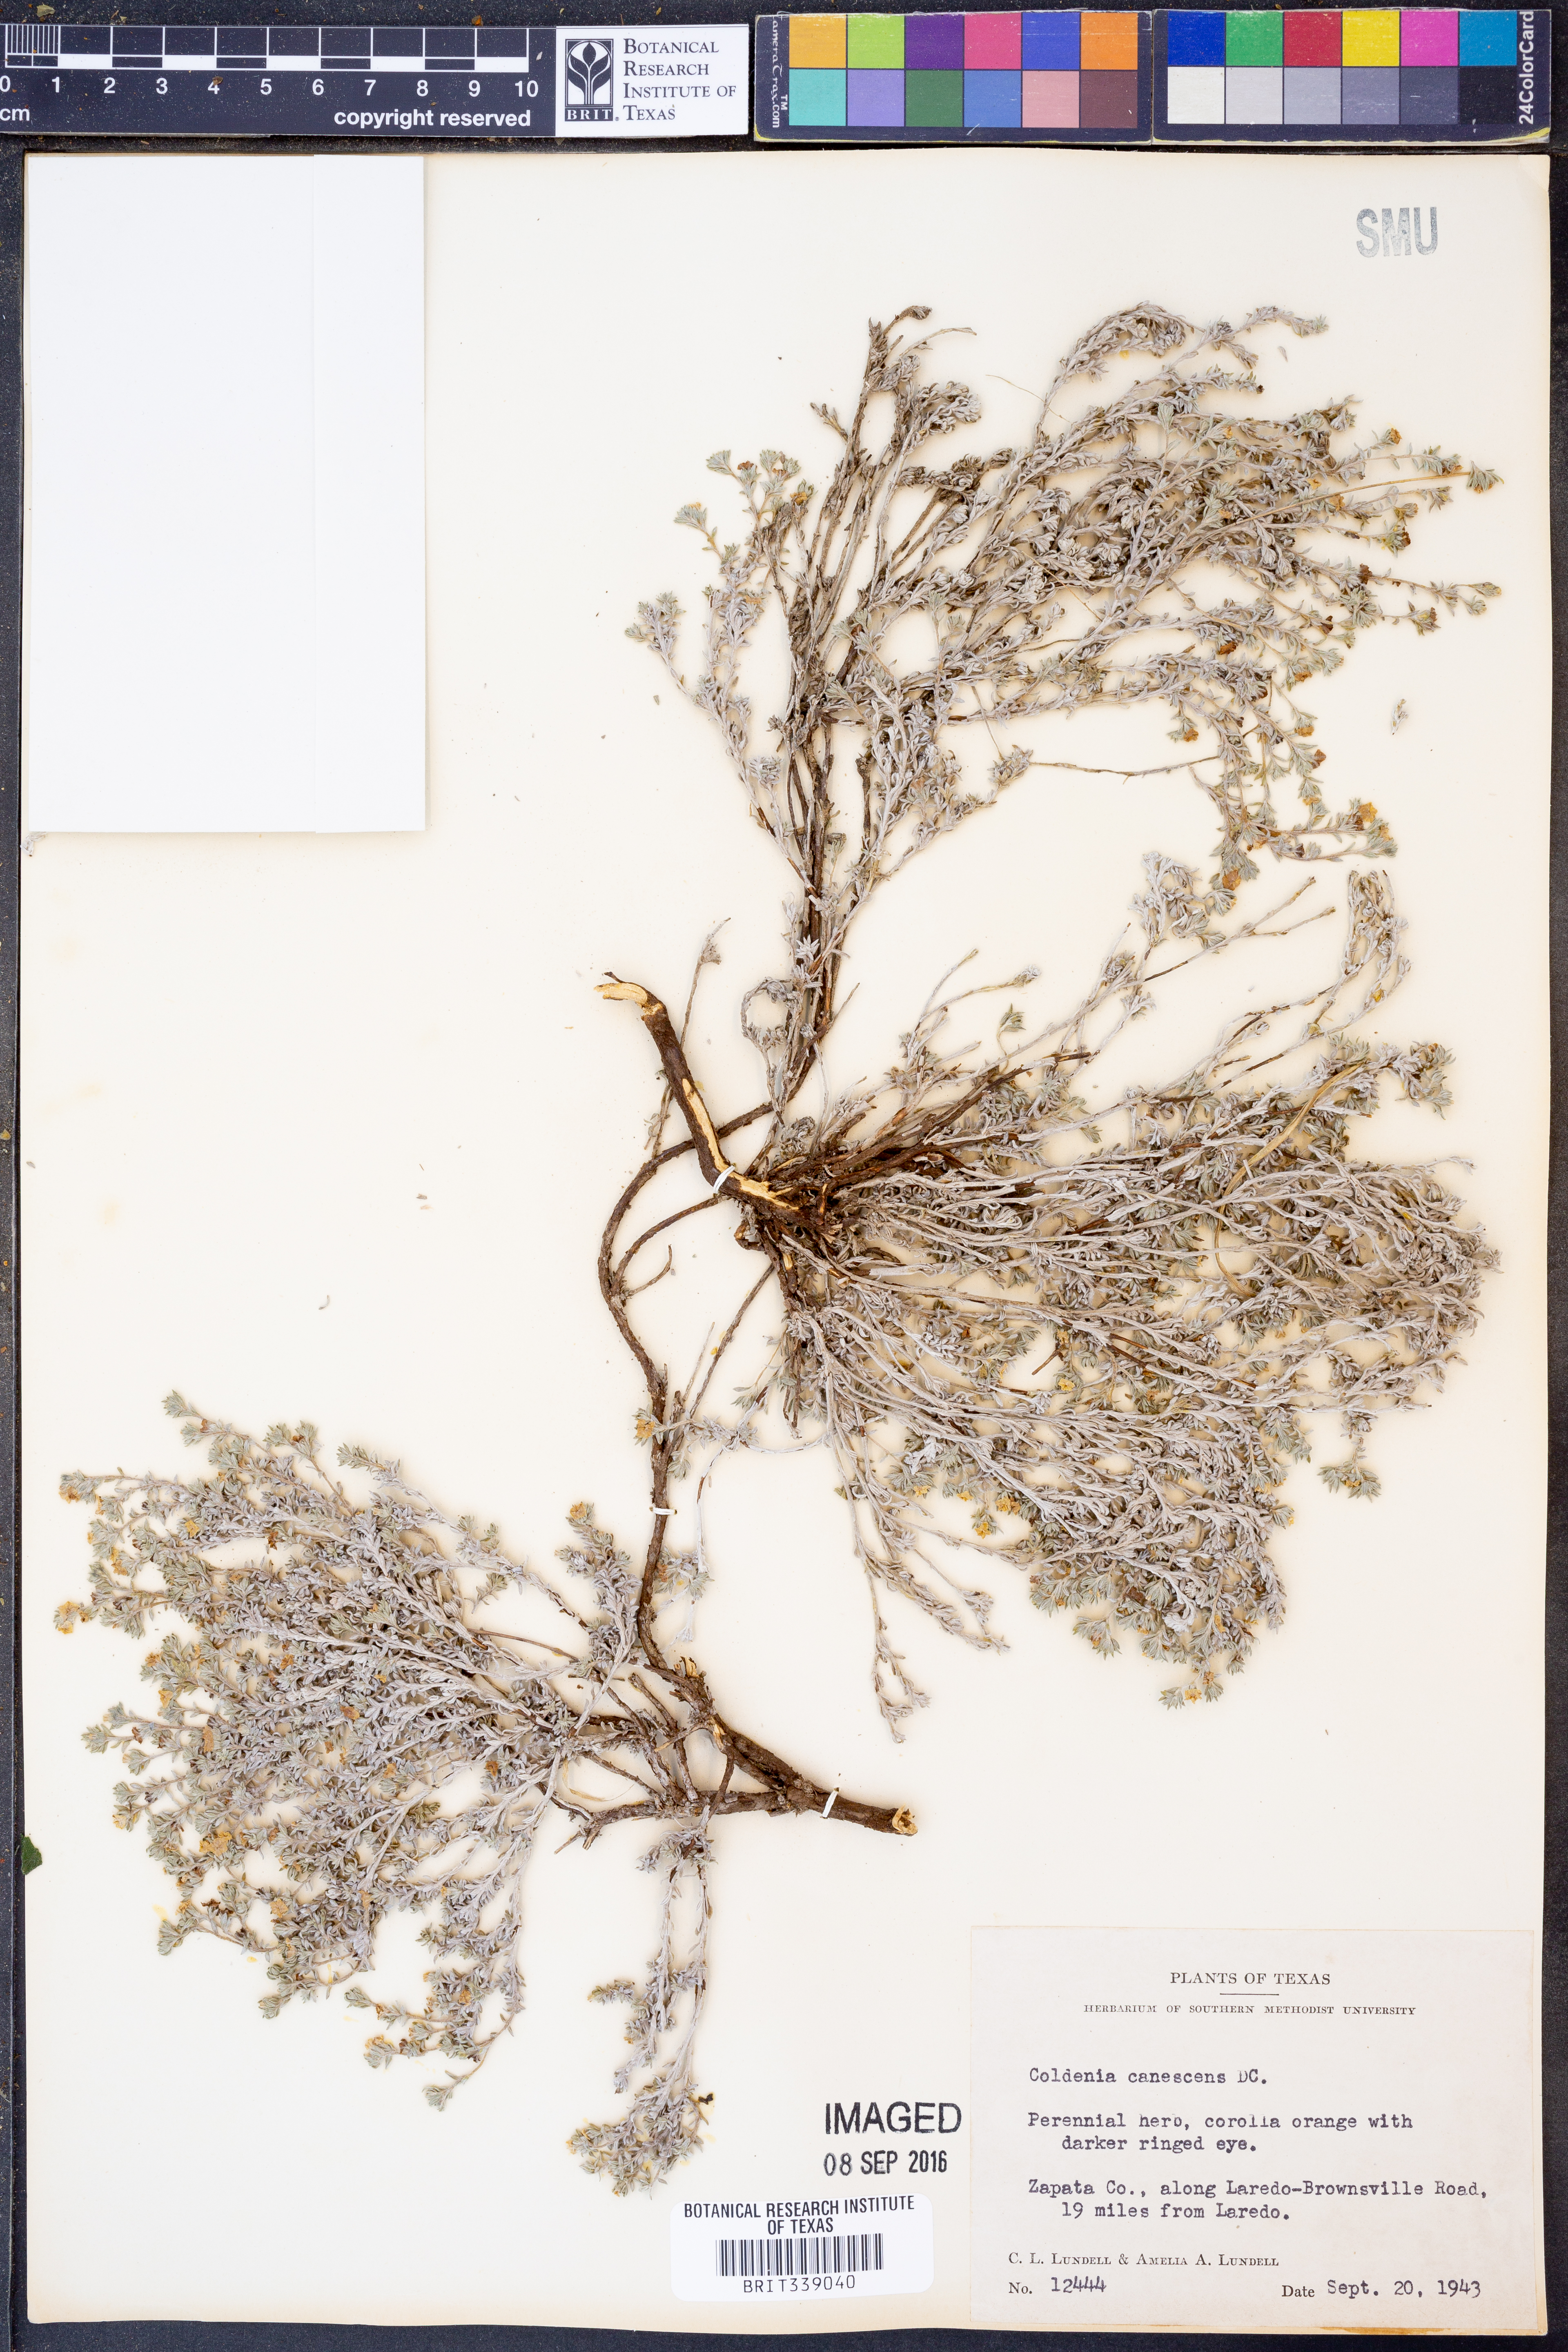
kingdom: Plantae
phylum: Tracheophyta
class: Magnoliopsida
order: Boraginales
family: Ehretiaceae
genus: Tiquilia
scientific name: Tiquilia canescens
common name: Hairy tiquilia
